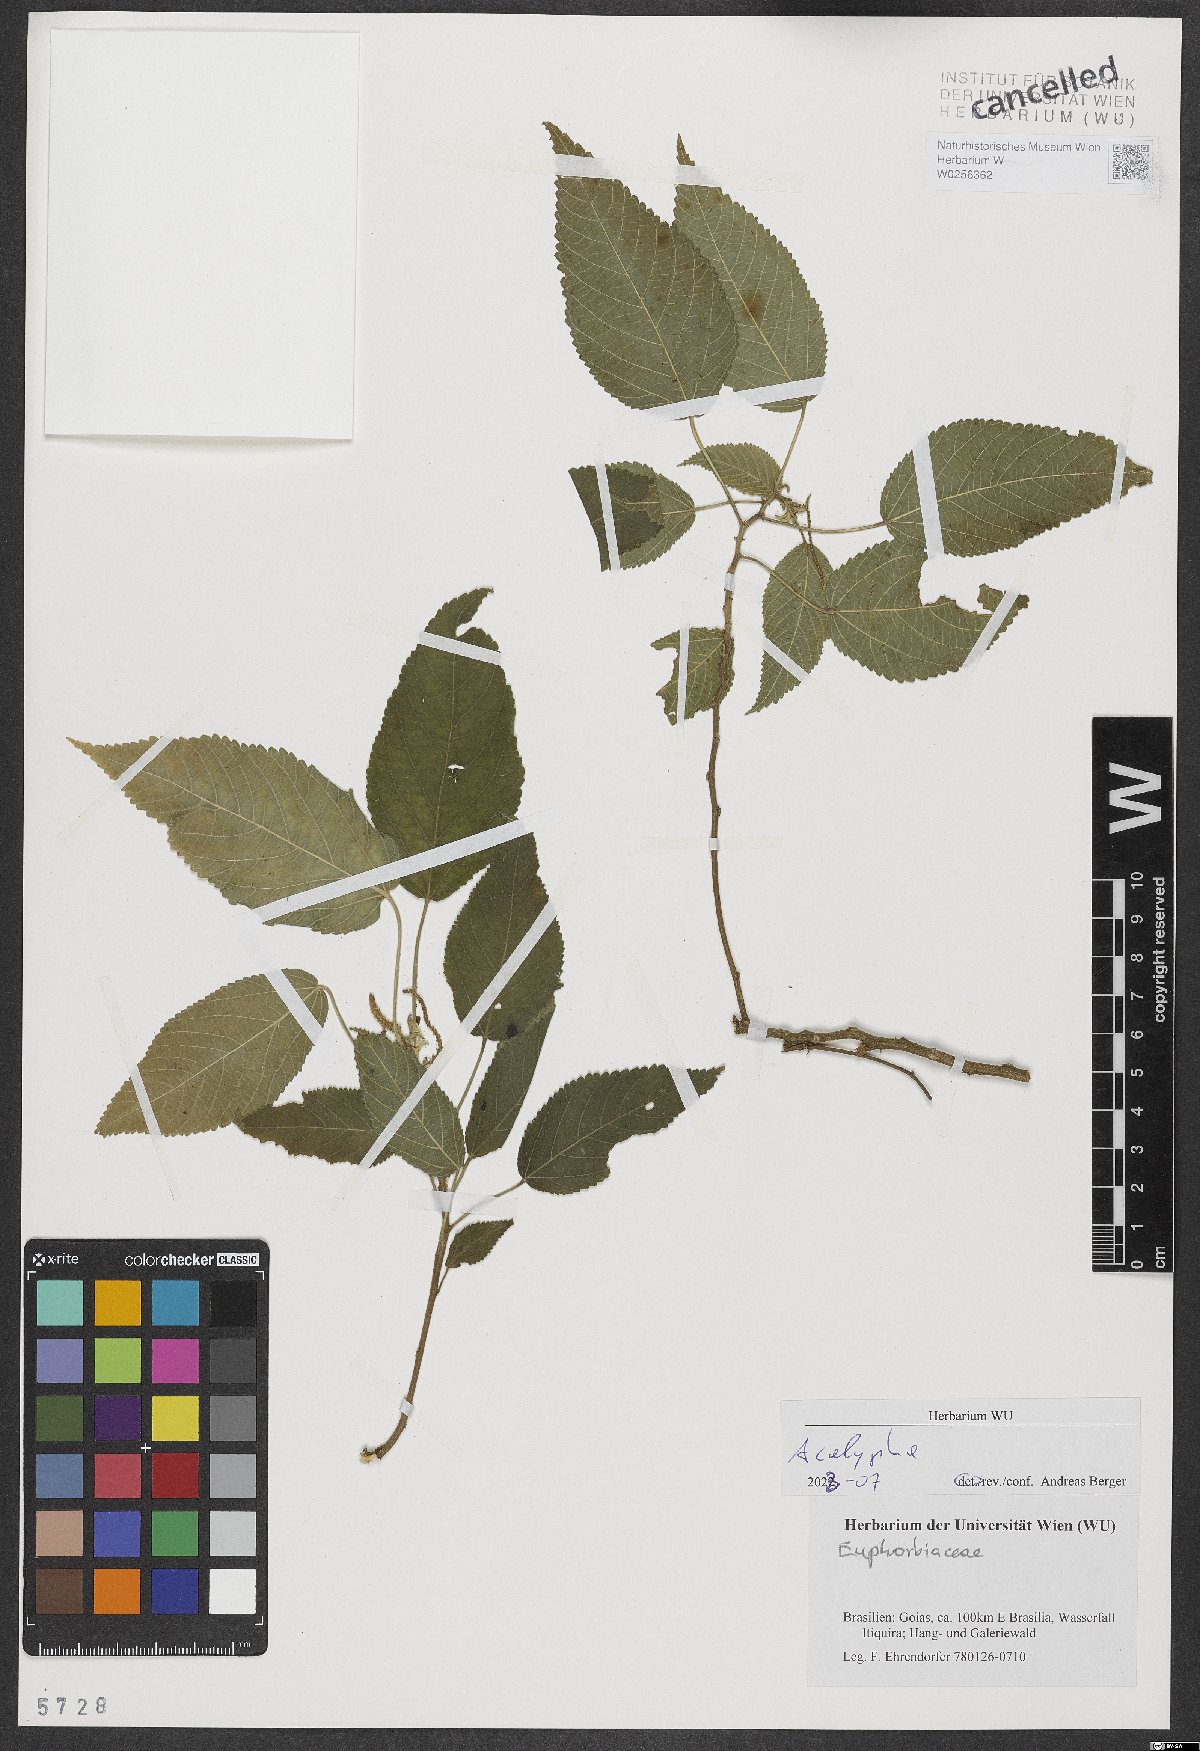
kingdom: Plantae
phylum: Tracheophyta
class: Magnoliopsida
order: Malpighiales
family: Euphorbiaceae
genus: Acalypha
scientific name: Acalypha
